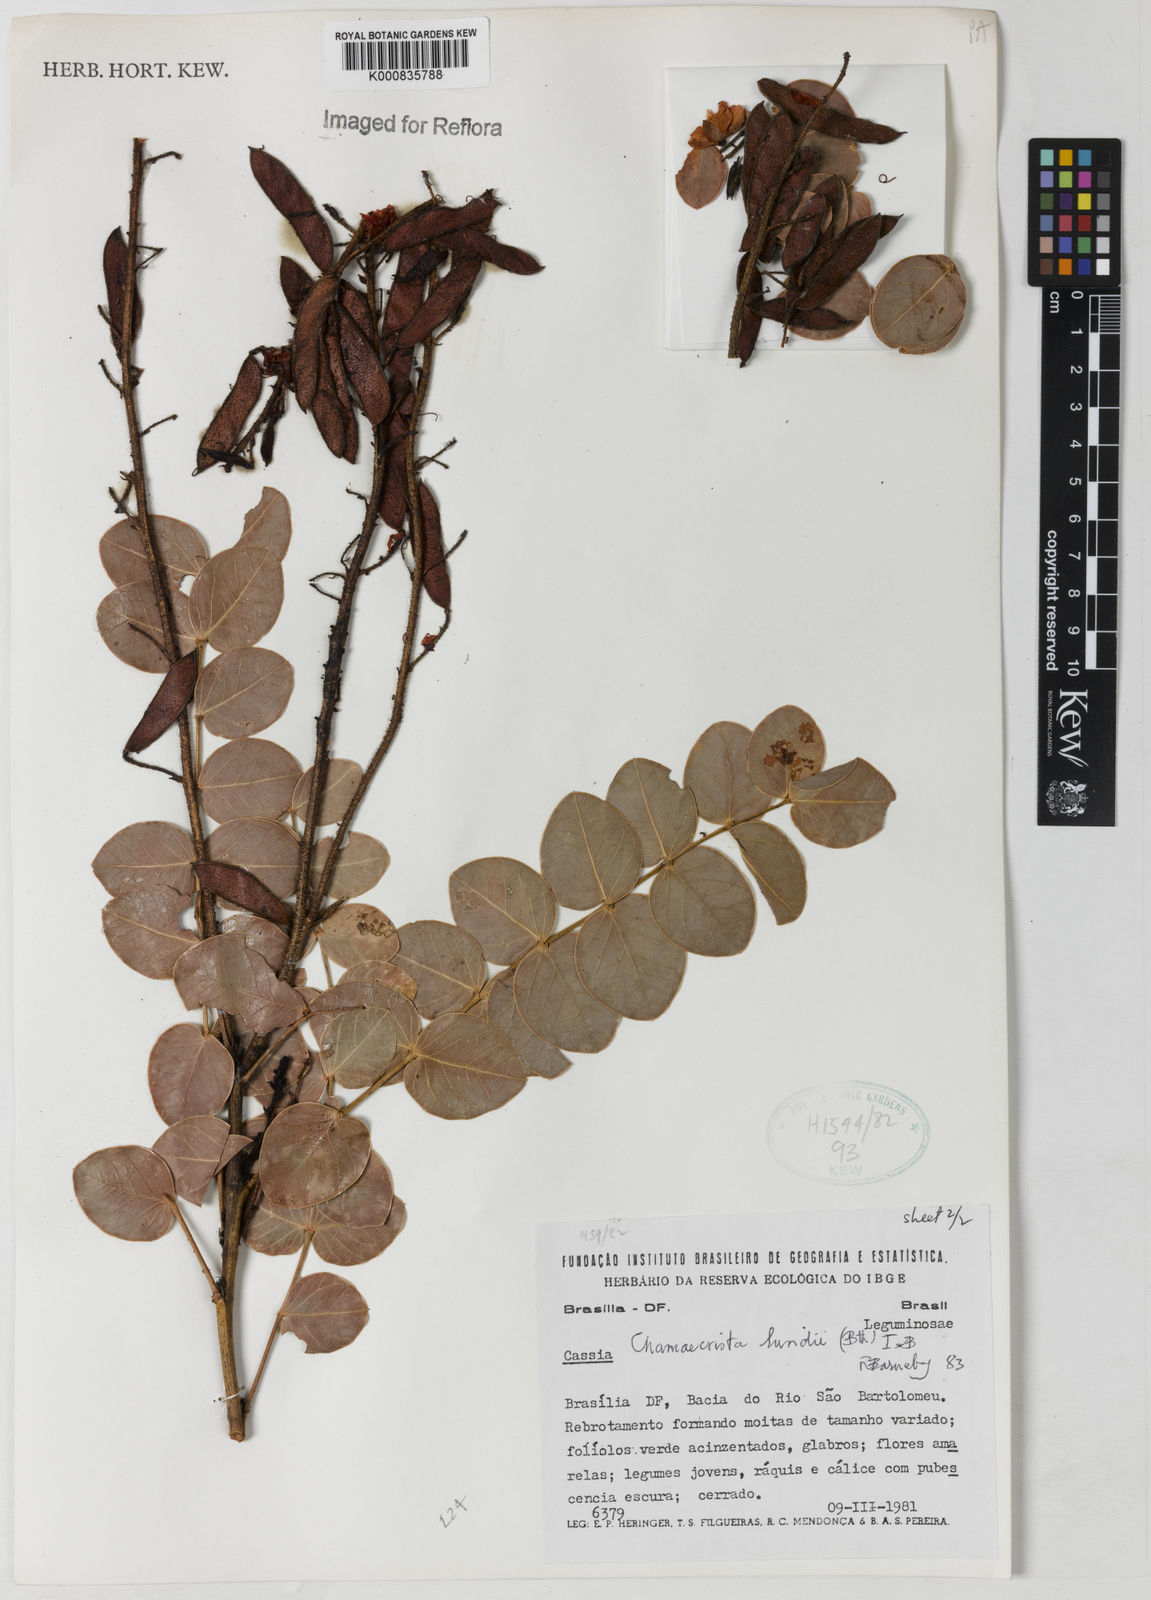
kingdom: Plantae
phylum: Tracheophyta
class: Magnoliopsida
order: Fabales
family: Fabaceae
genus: Chamaecrista
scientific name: Chamaecrista lundii
